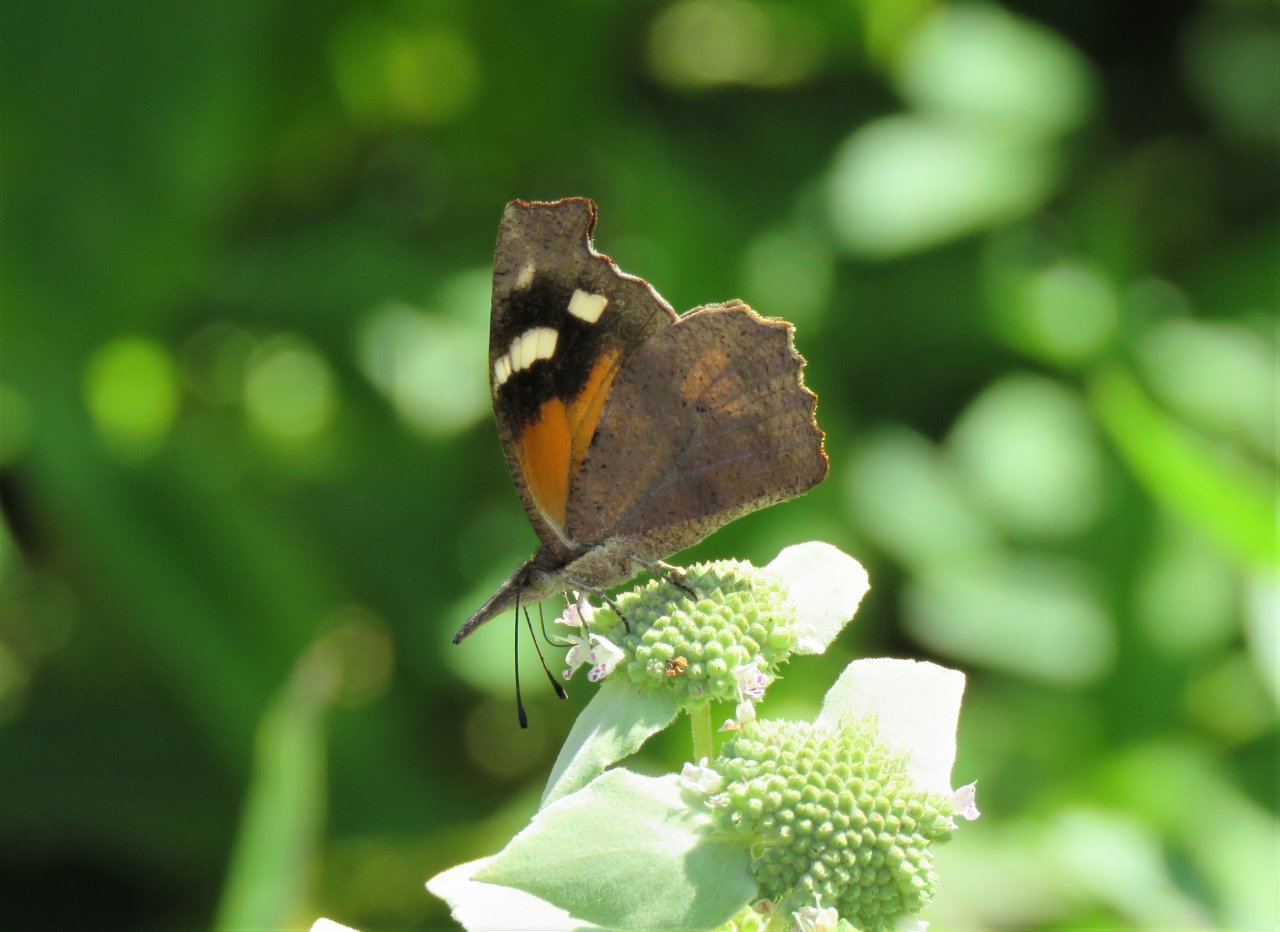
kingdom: Animalia
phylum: Arthropoda
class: Insecta
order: Lepidoptera
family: Nymphalidae
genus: Libytheana
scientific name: Libytheana carinenta
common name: American Snout
